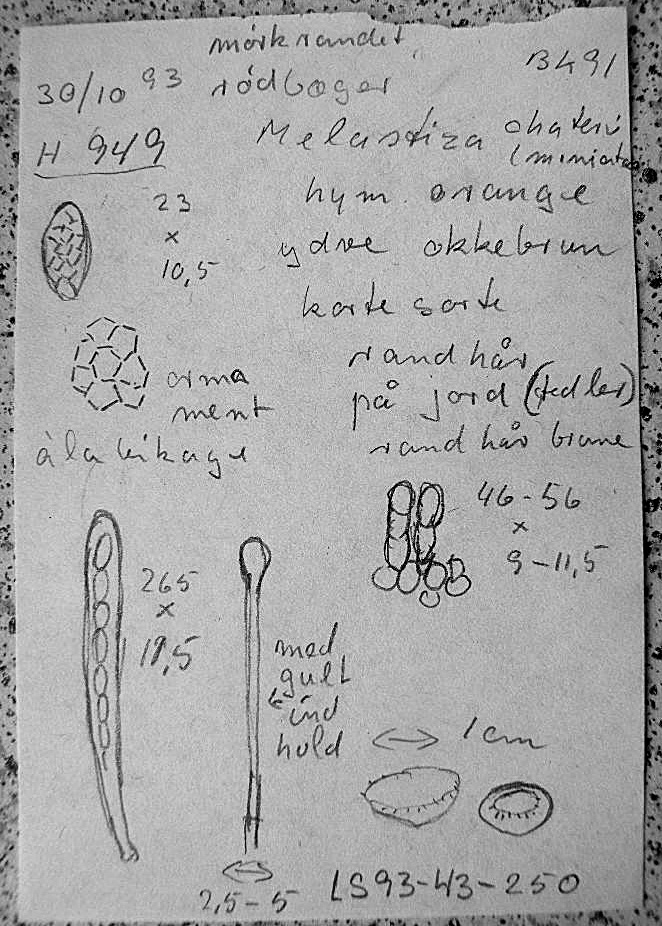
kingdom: Fungi
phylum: Ascomycota
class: Pezizomycetes
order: Pezizales
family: Pyronemataceae
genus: Melastiza
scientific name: Melastiza cornubiensis
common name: mørkrandet rødbæger
